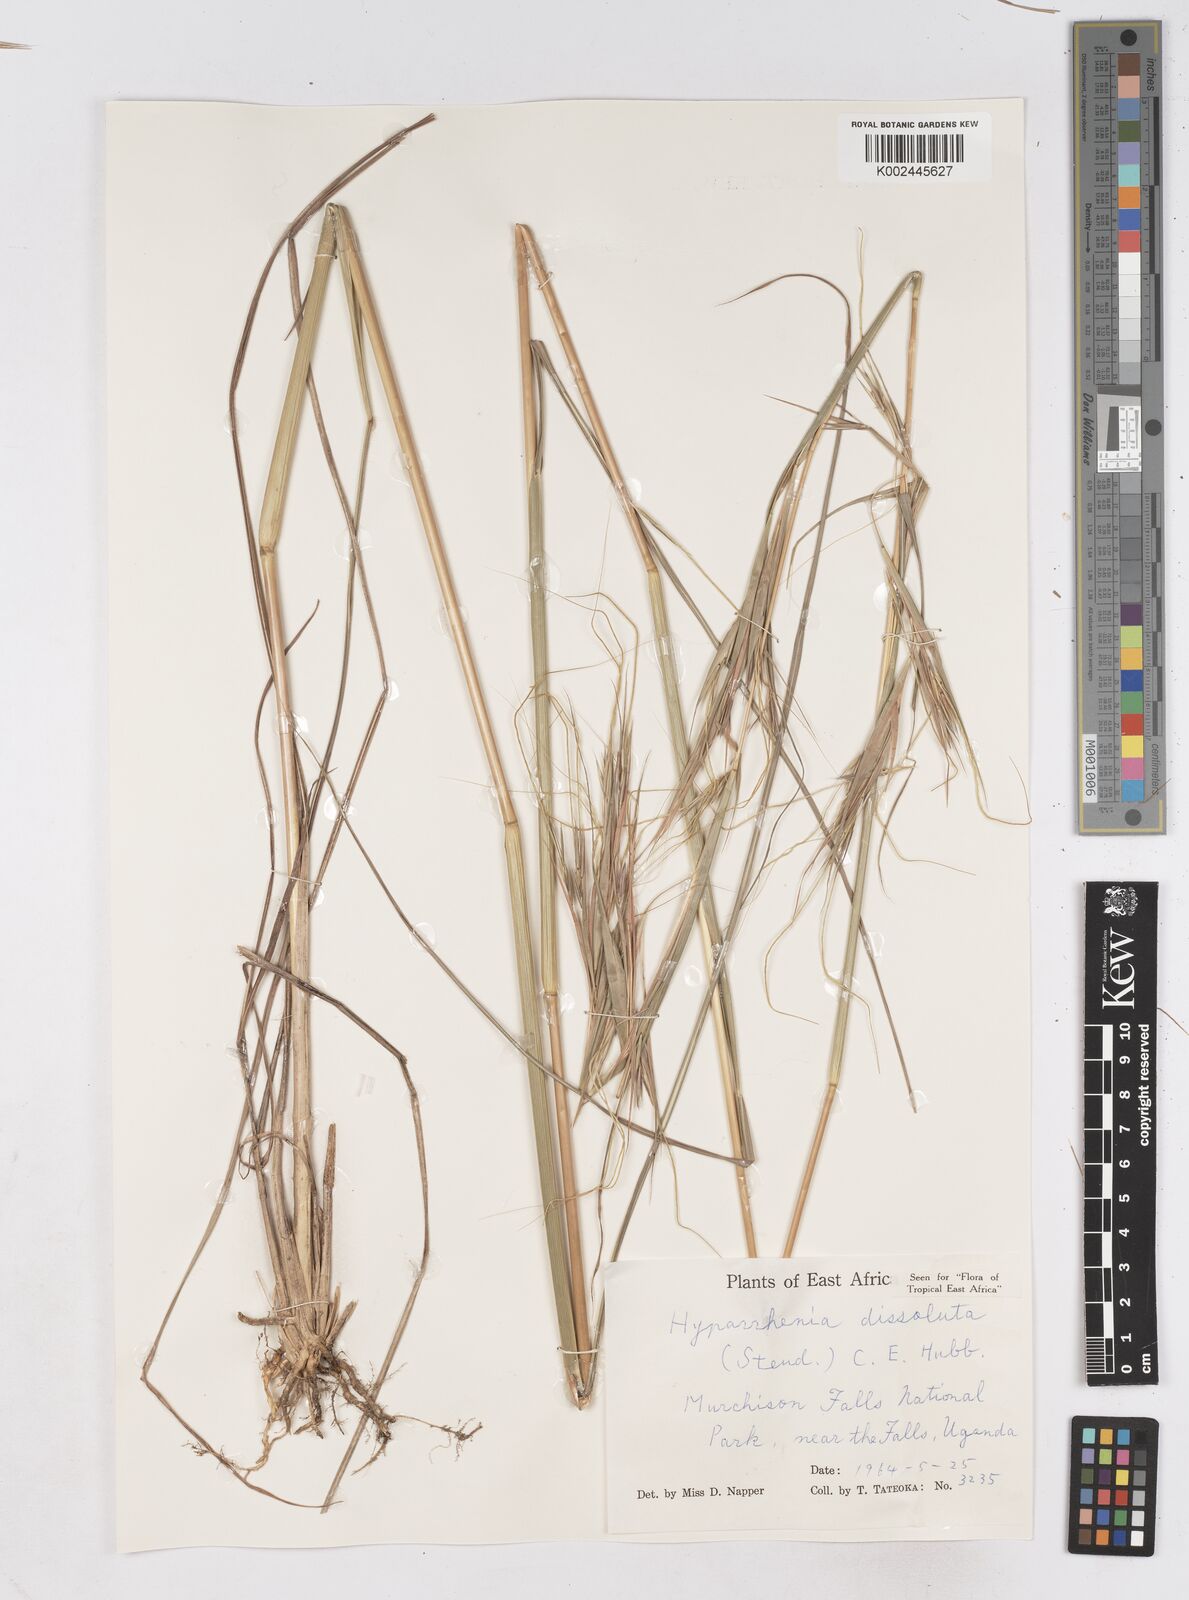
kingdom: Plantae
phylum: Tracheophyta
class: Liliopsida
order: Poales
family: Poaceae
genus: Hyperthelia
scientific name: Hyperthelia dissoluta
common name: Yellow thatching grass
